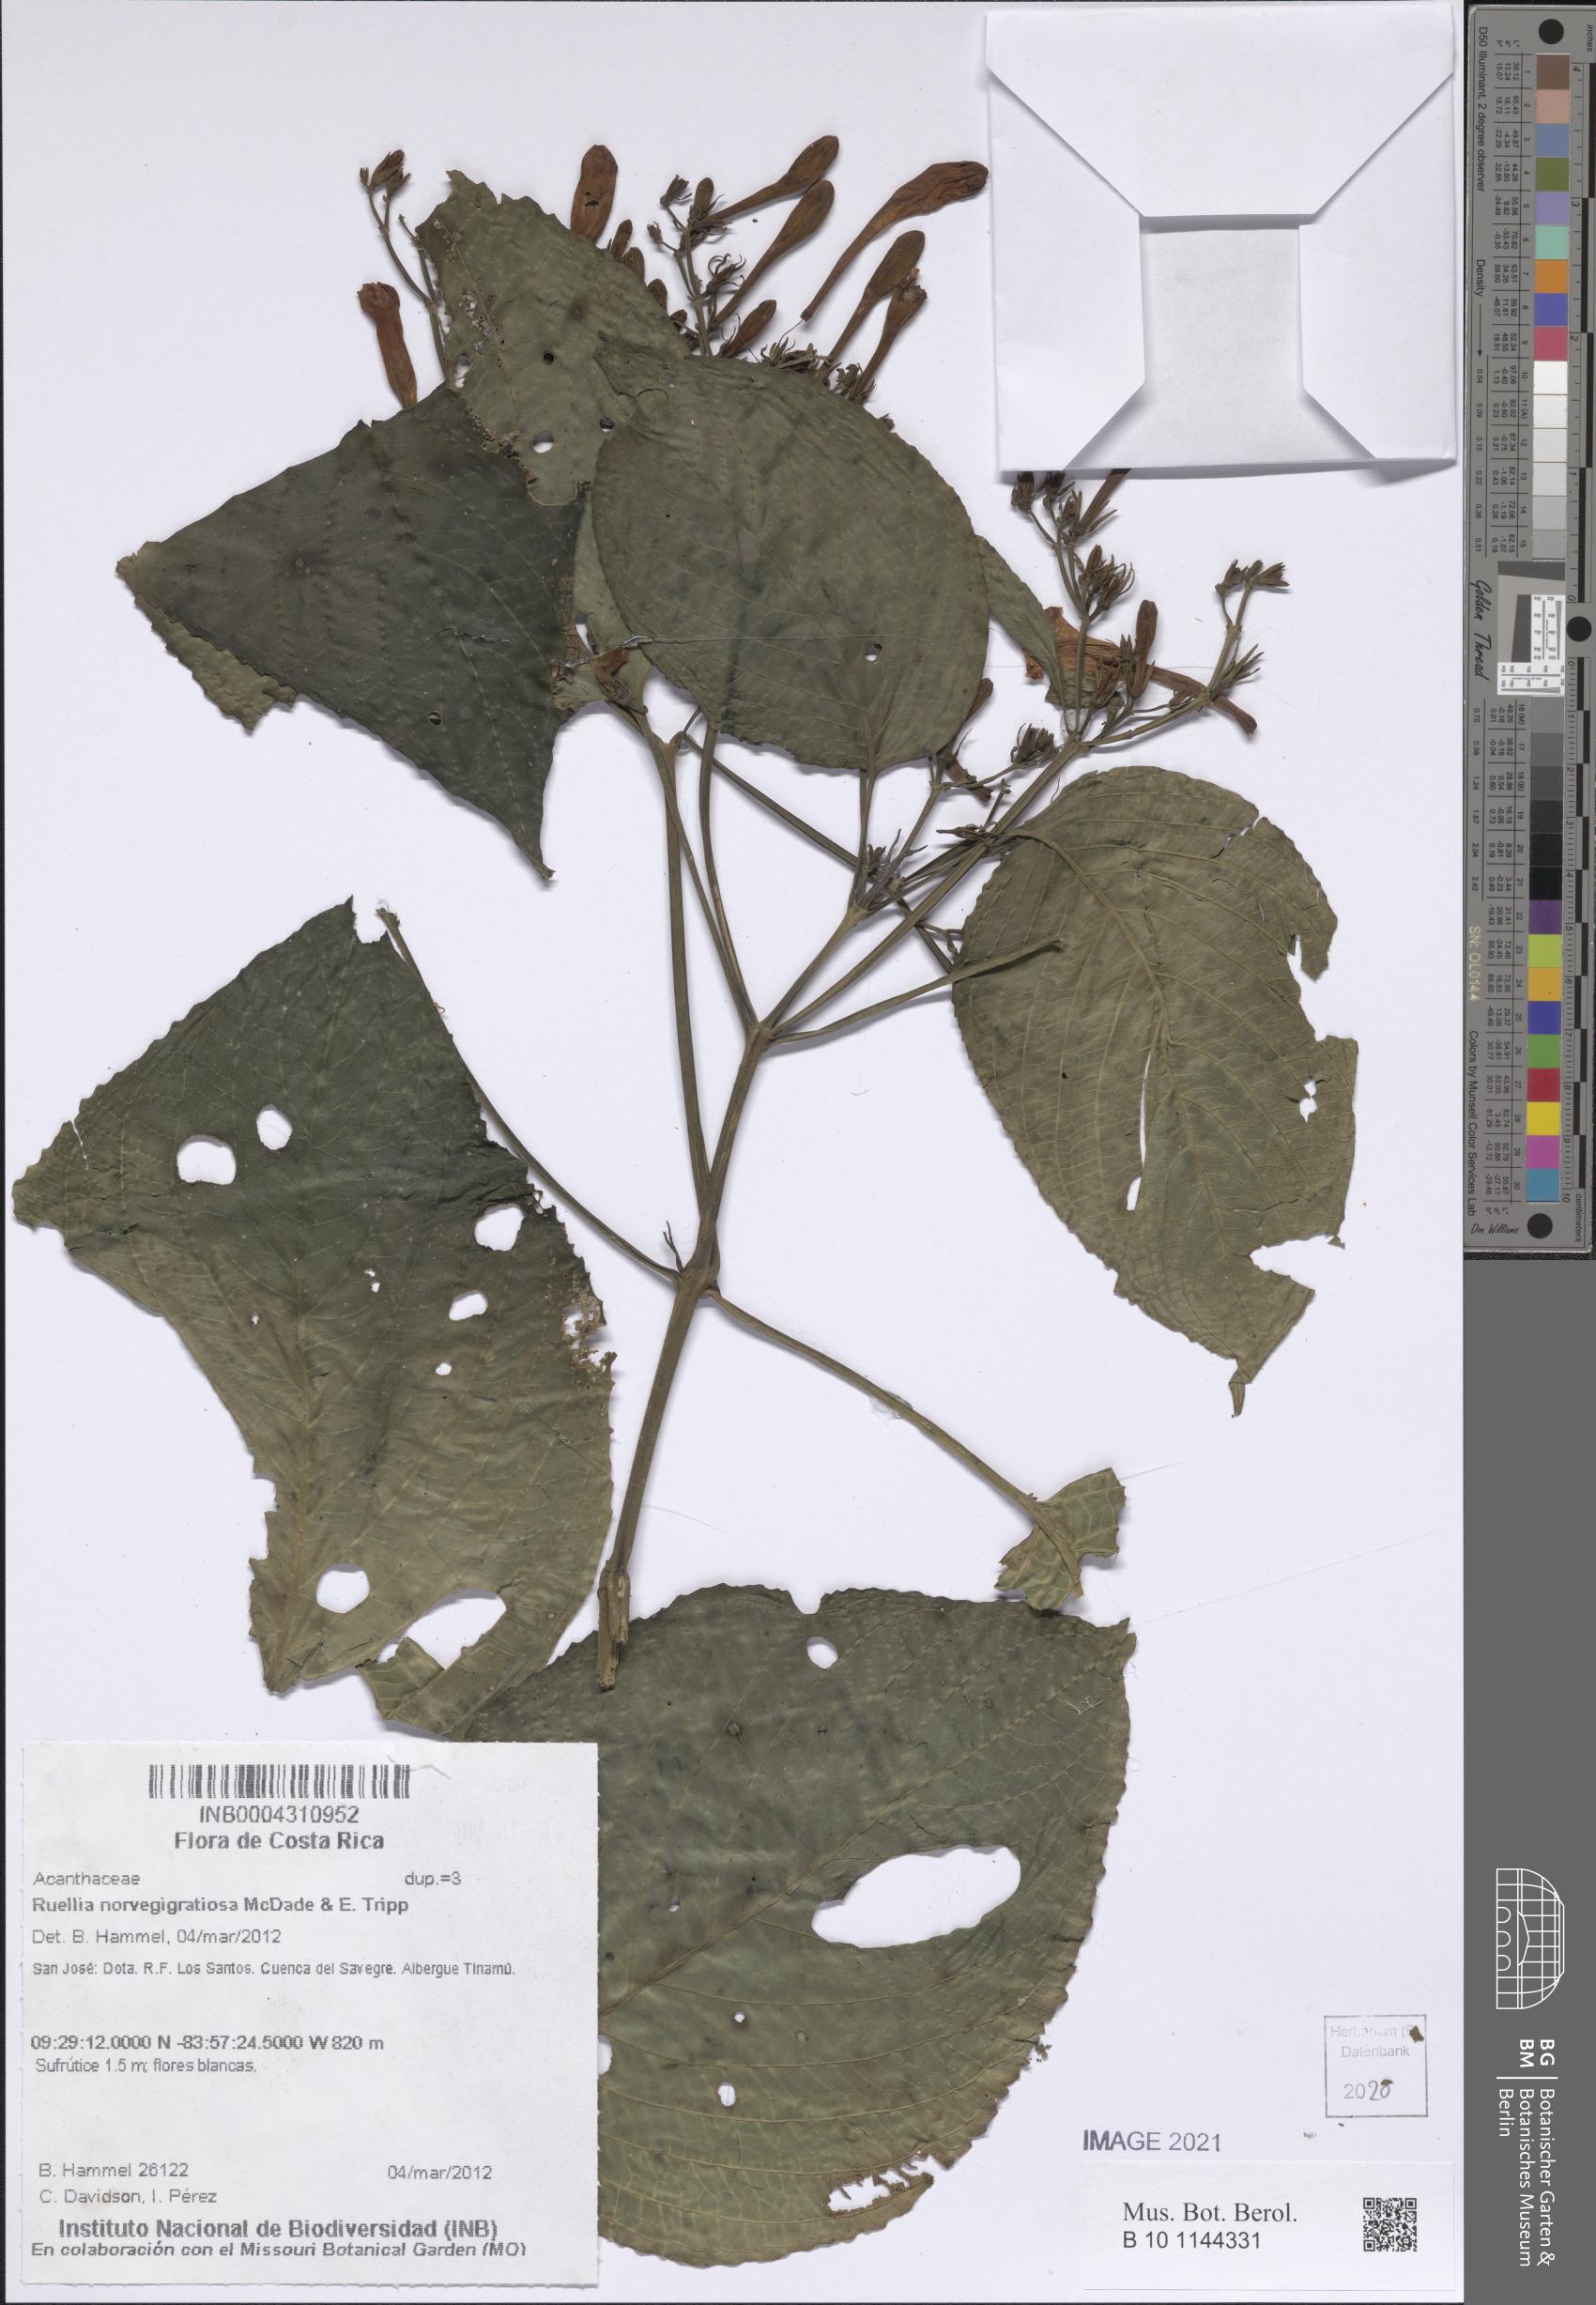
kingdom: Plantae
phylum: Tracheophyta
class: Magnoliopsida
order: Lamiales
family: Acanthaceae
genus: Ruellia
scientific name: Ruellia norvegigratiosa
